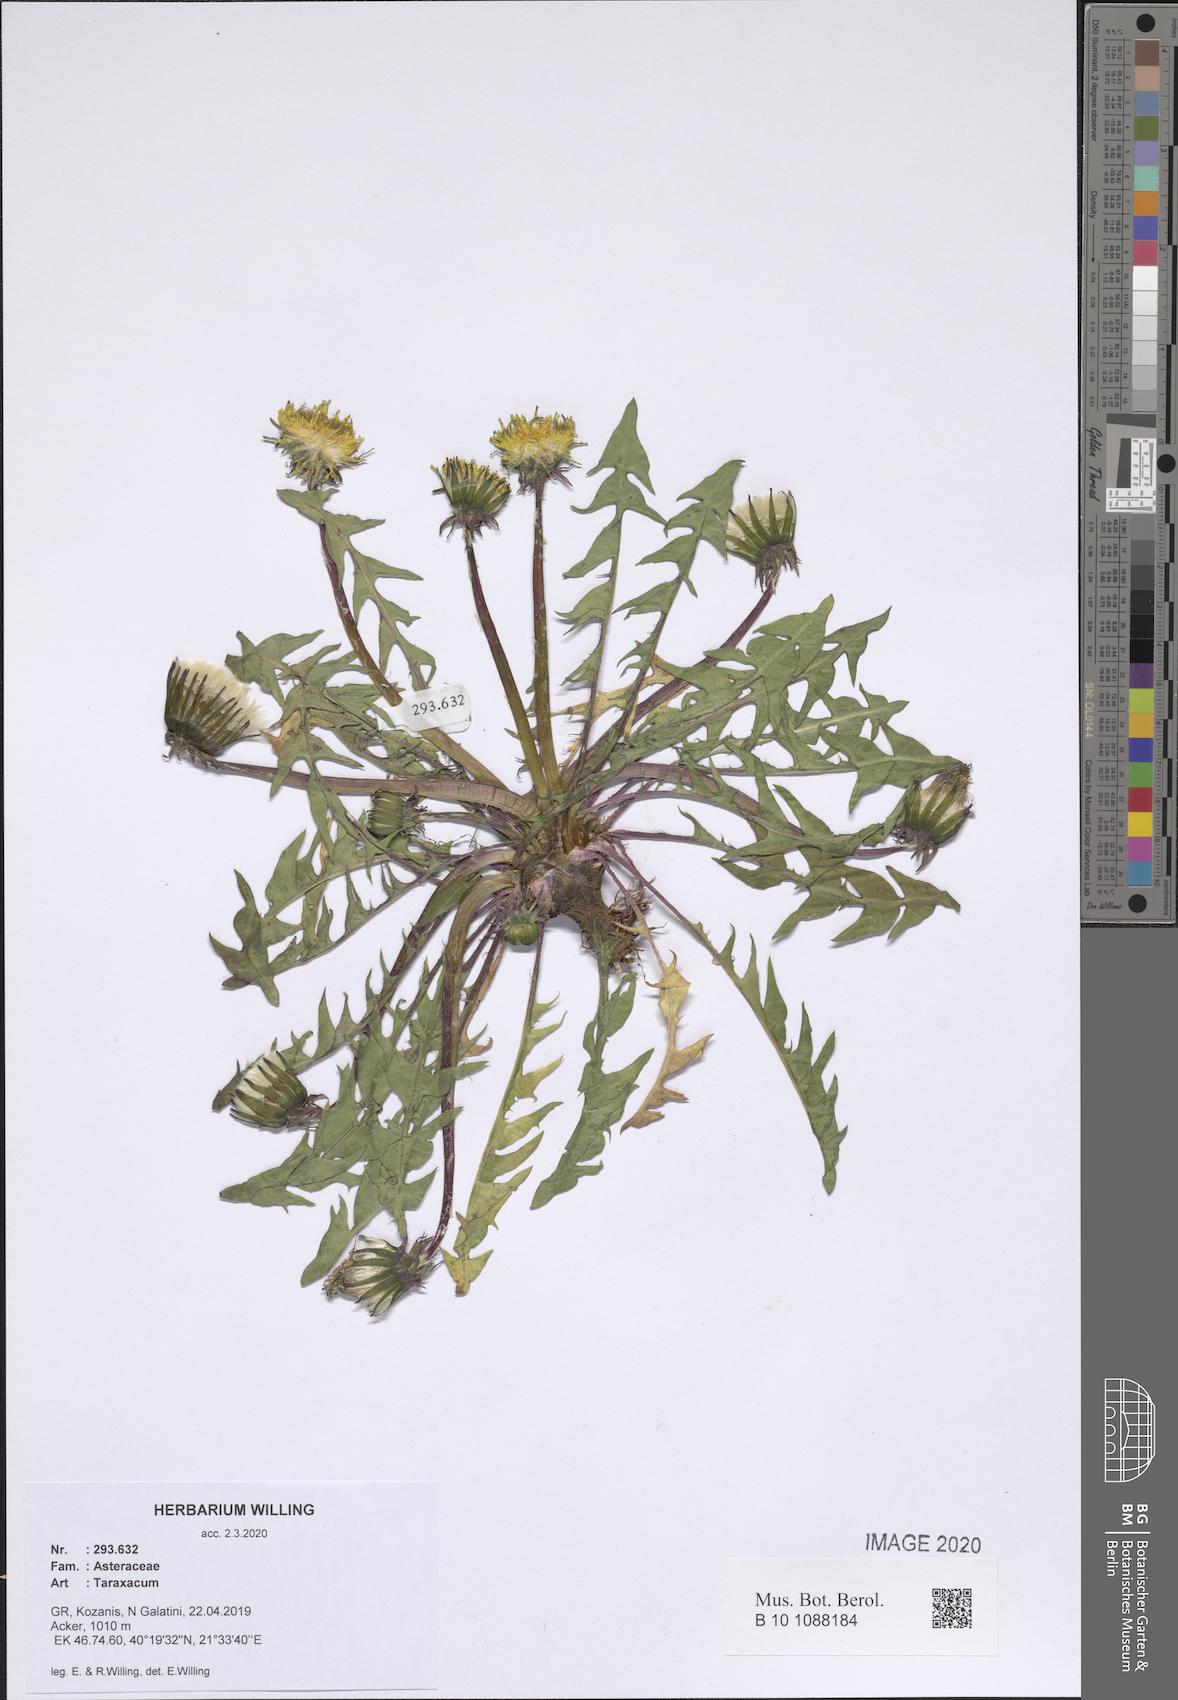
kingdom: Plantae
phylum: Tracheophyta
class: Magnoliopsida
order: Asterales
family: Asteraceae
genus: Taraxacum
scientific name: Taraxacum
